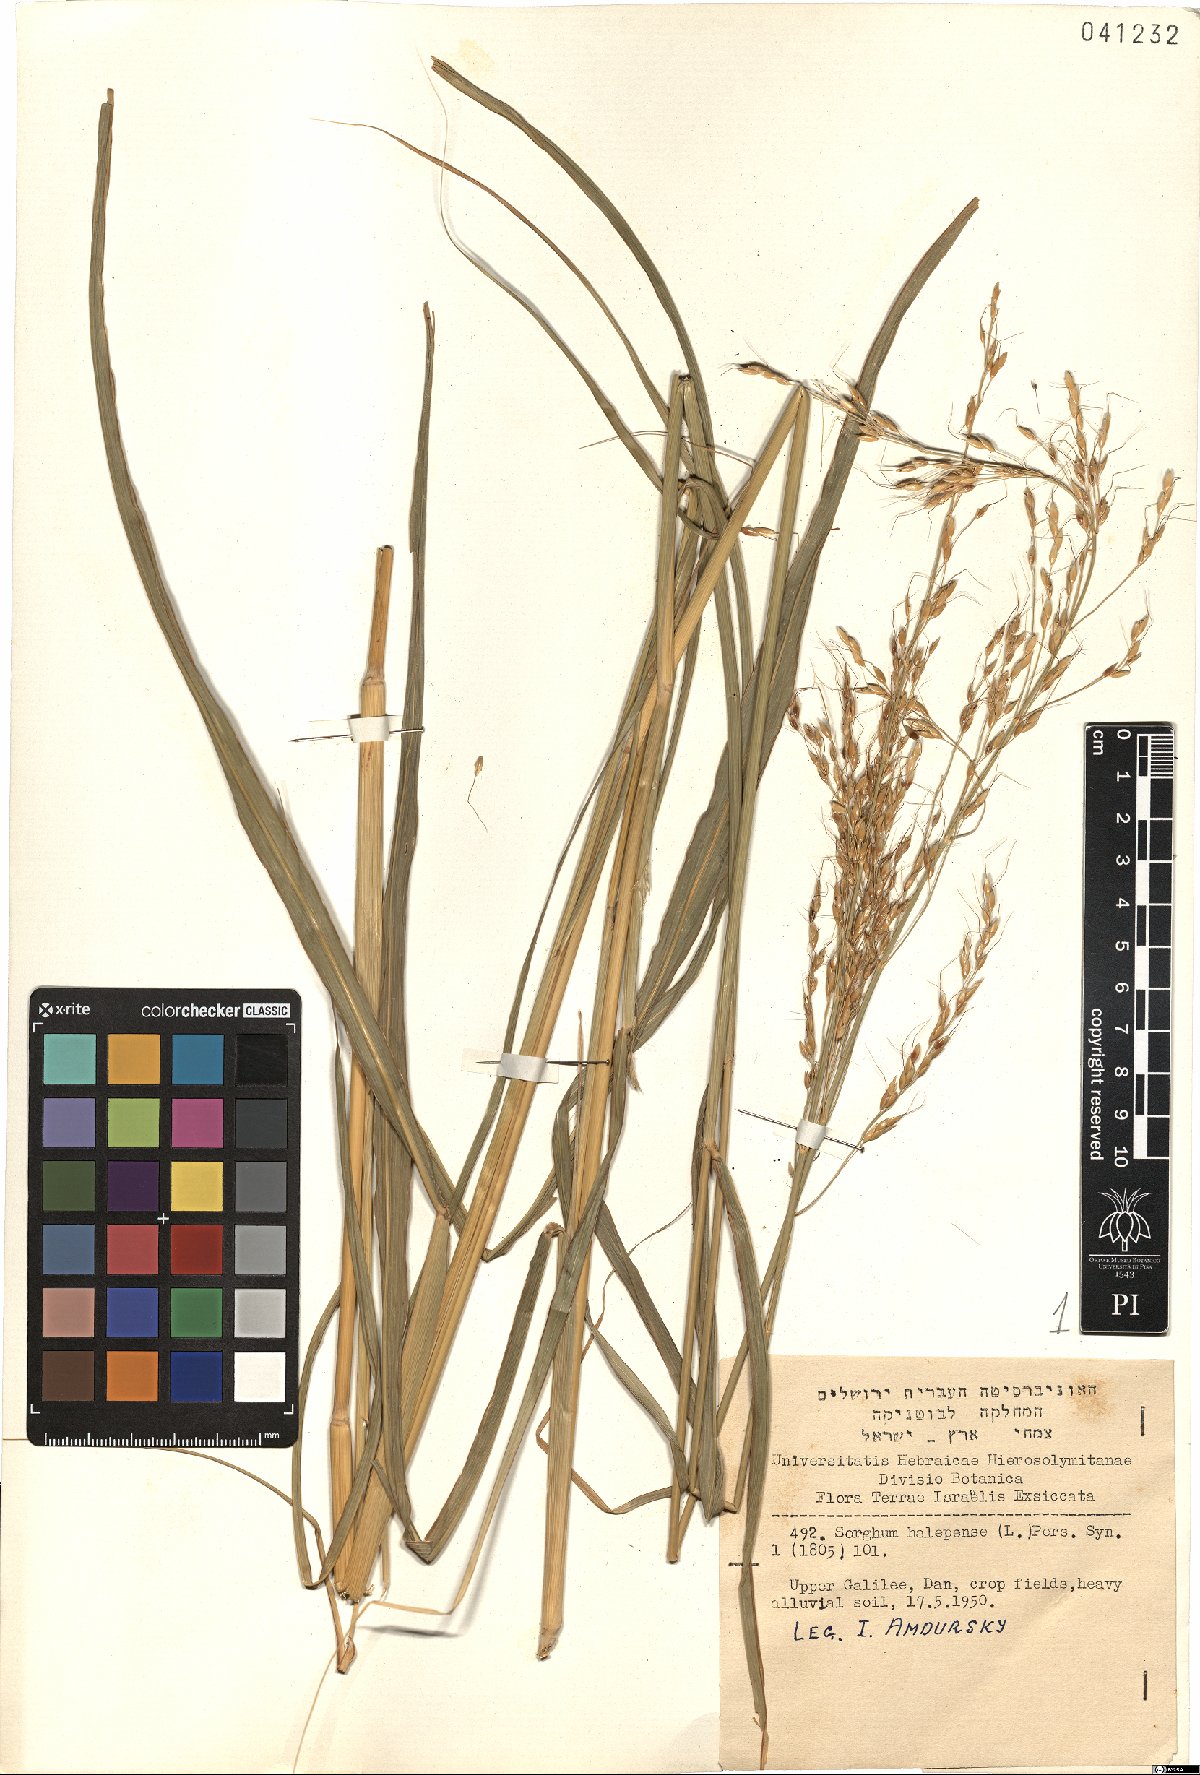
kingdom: Plantae
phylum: Tracheophyta
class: Liliopsida
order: Poales
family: Poaceae
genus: Sorghum
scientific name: Sorghum halepense
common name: Johnson-grass
